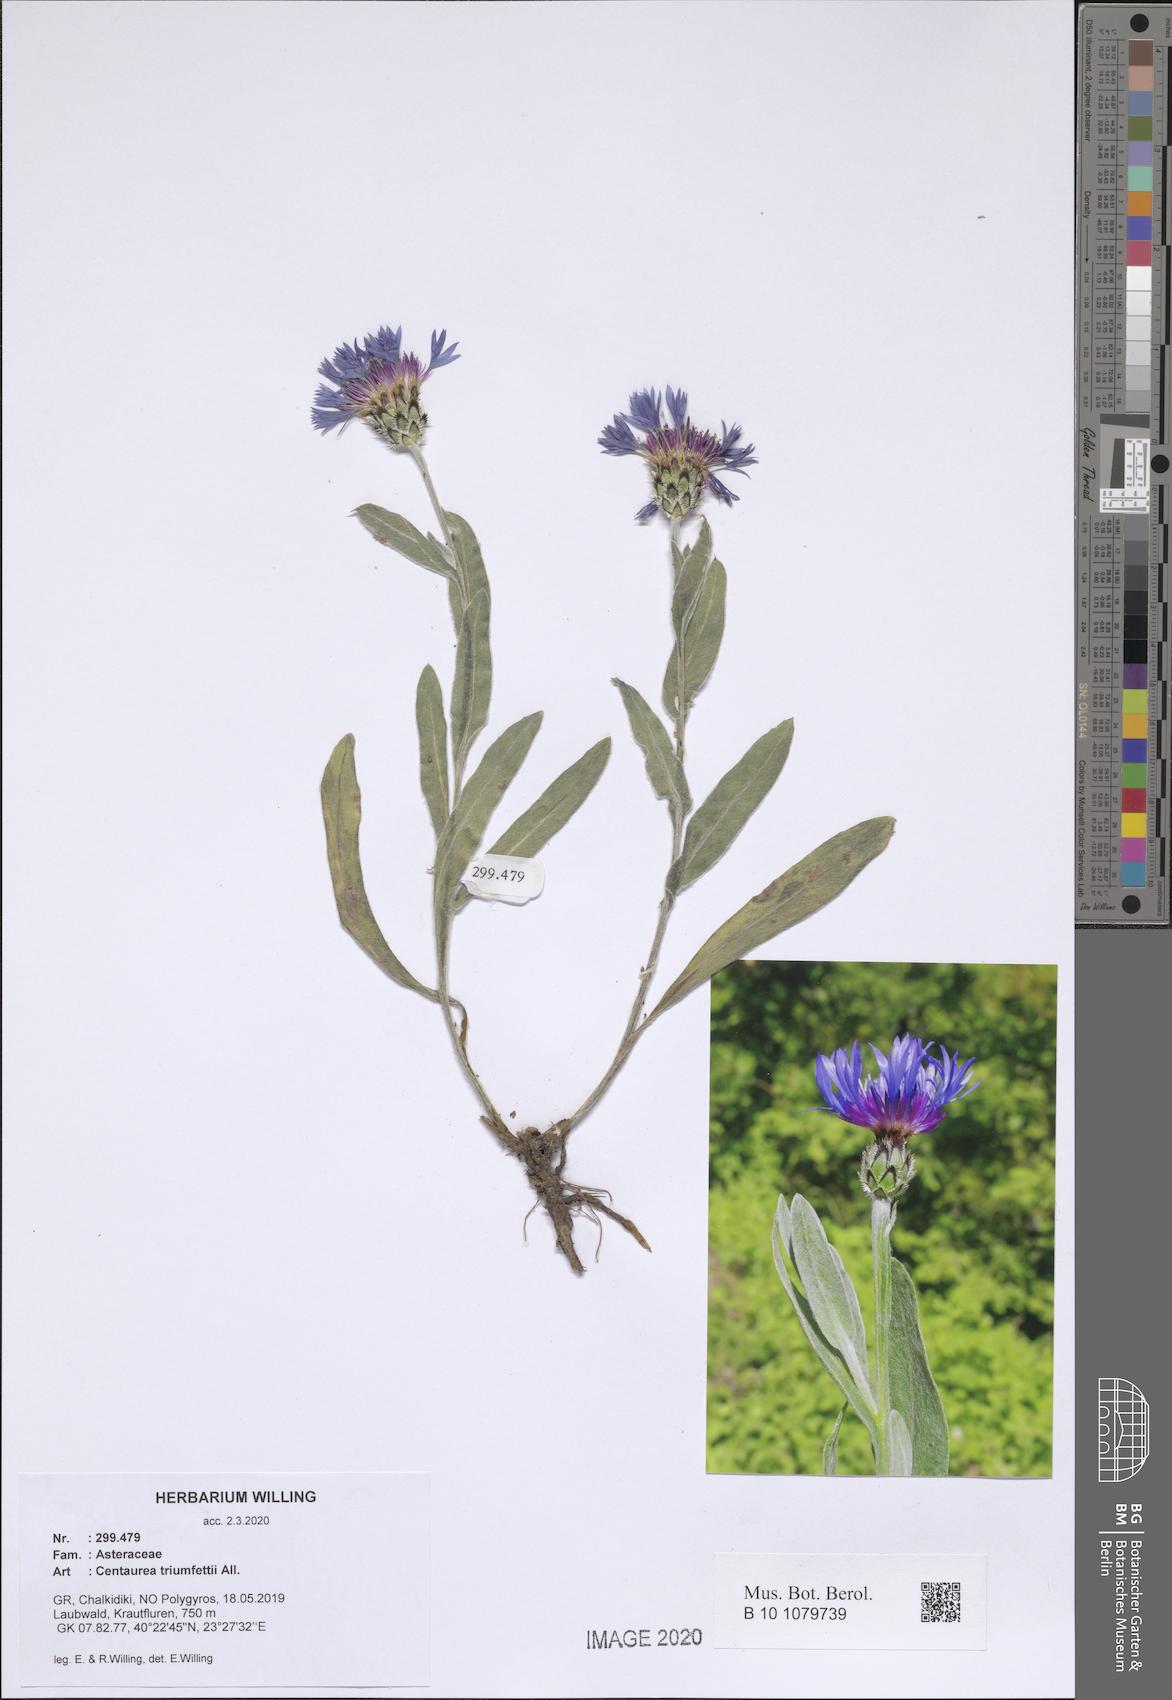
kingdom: Plantae
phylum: Tracheophyta
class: Magnoliopsida
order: Asterales
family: Asteraceae
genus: Centaurea
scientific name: Centaurea triumfettii
